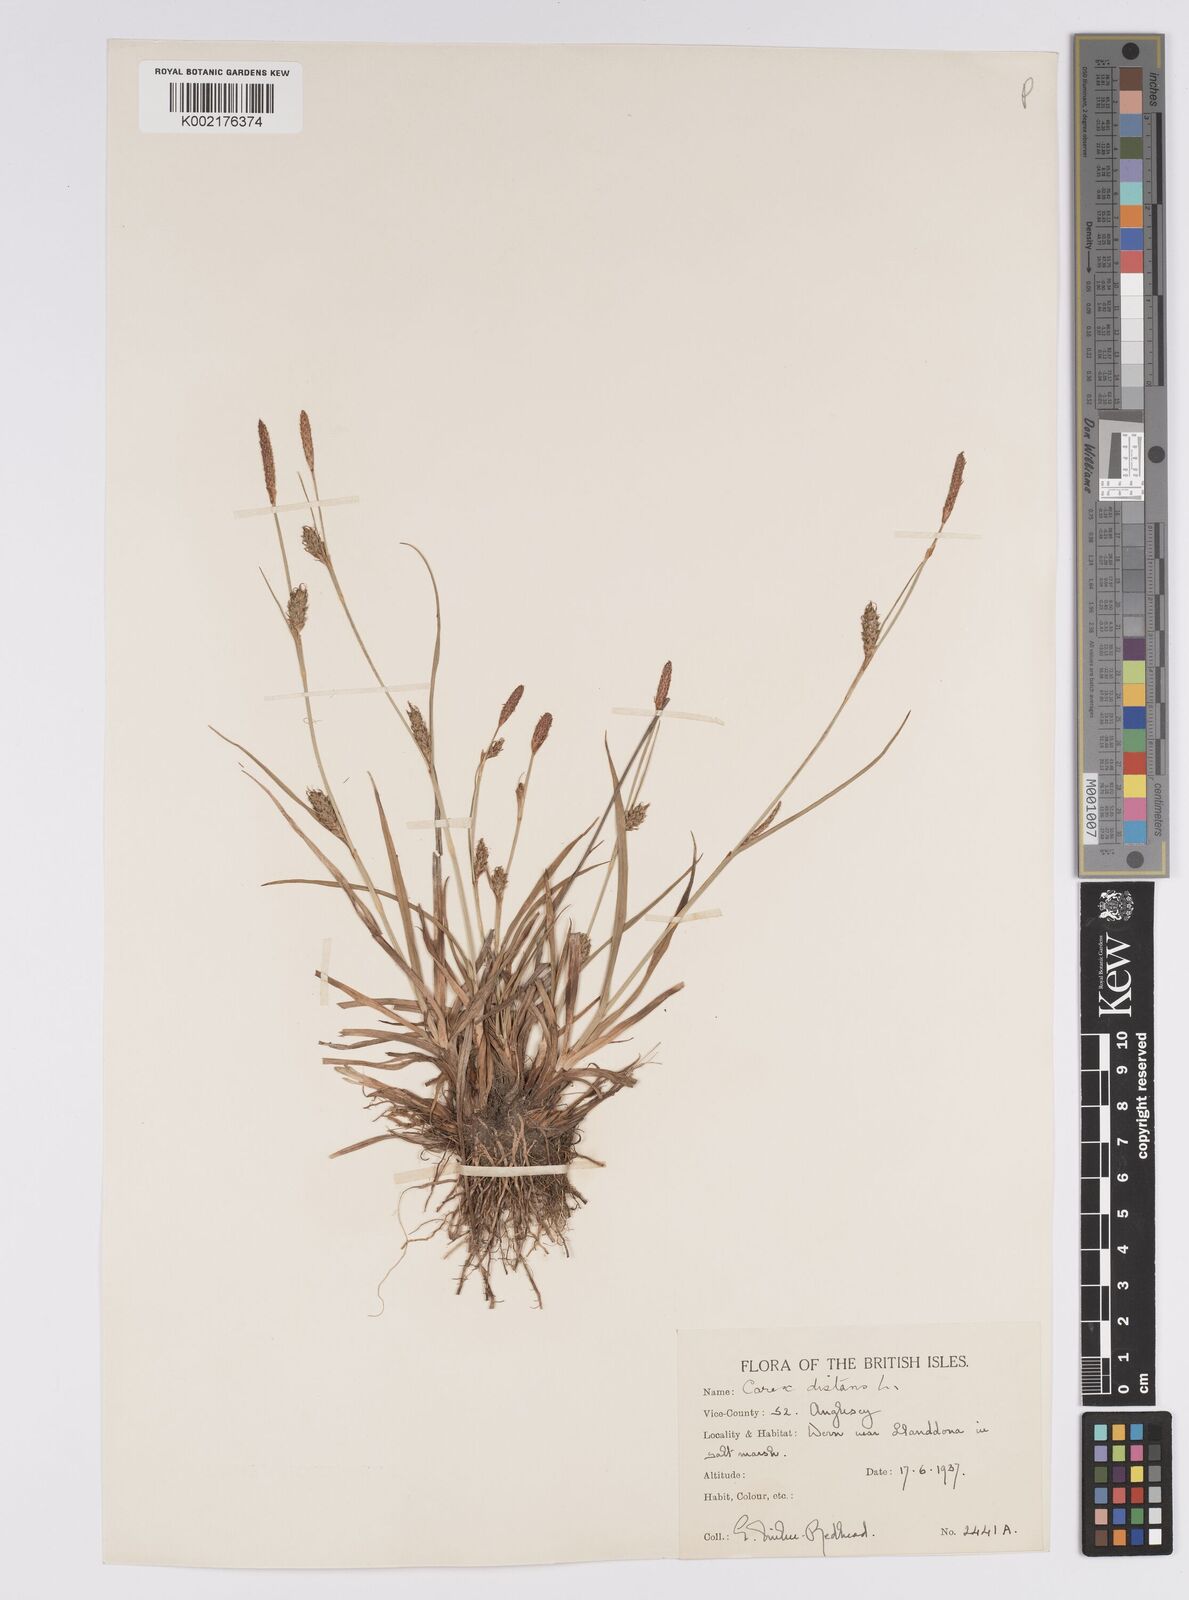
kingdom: Plantae
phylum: Tracheophyta
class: Liliopsida
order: Poales
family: Cyperaceae
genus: Carex
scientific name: Carex distans
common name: Distant sedge
